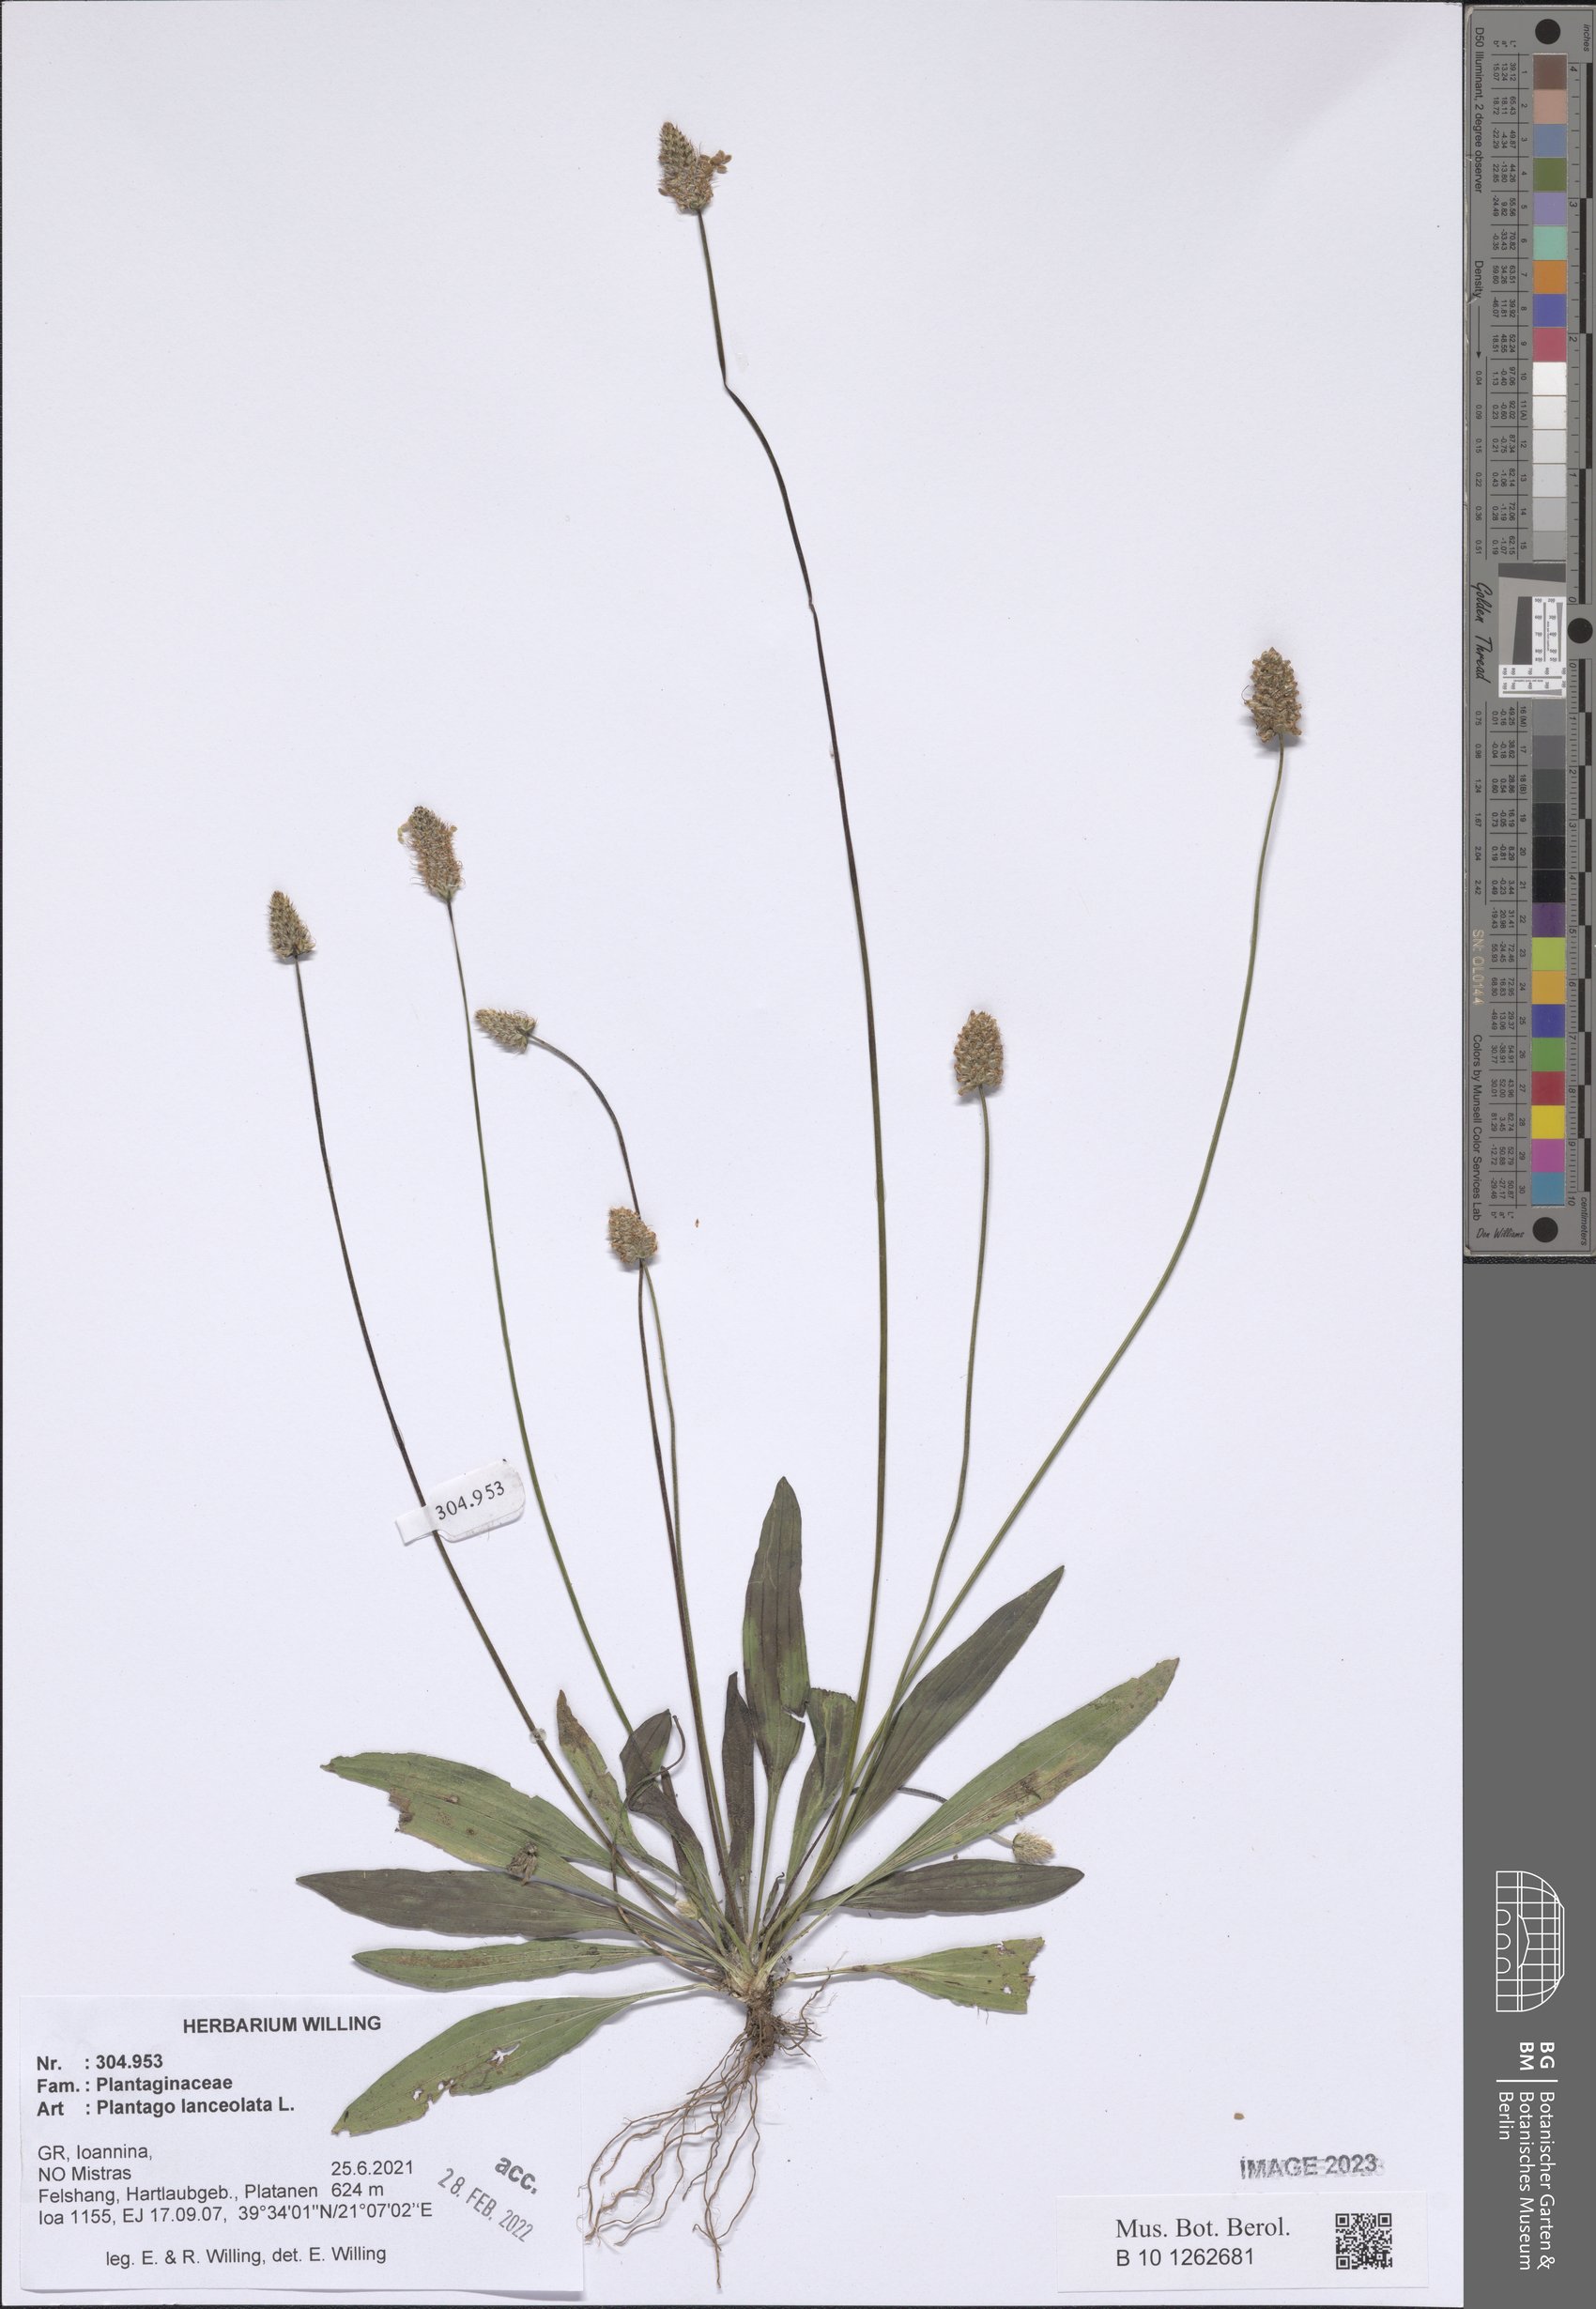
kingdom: Plantae
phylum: Tracheophyta
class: Magnoliopsida
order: Lamiales
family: Plantaginaceae
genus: Plantago
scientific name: Plantago lanceolata
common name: Ribwort plantain
